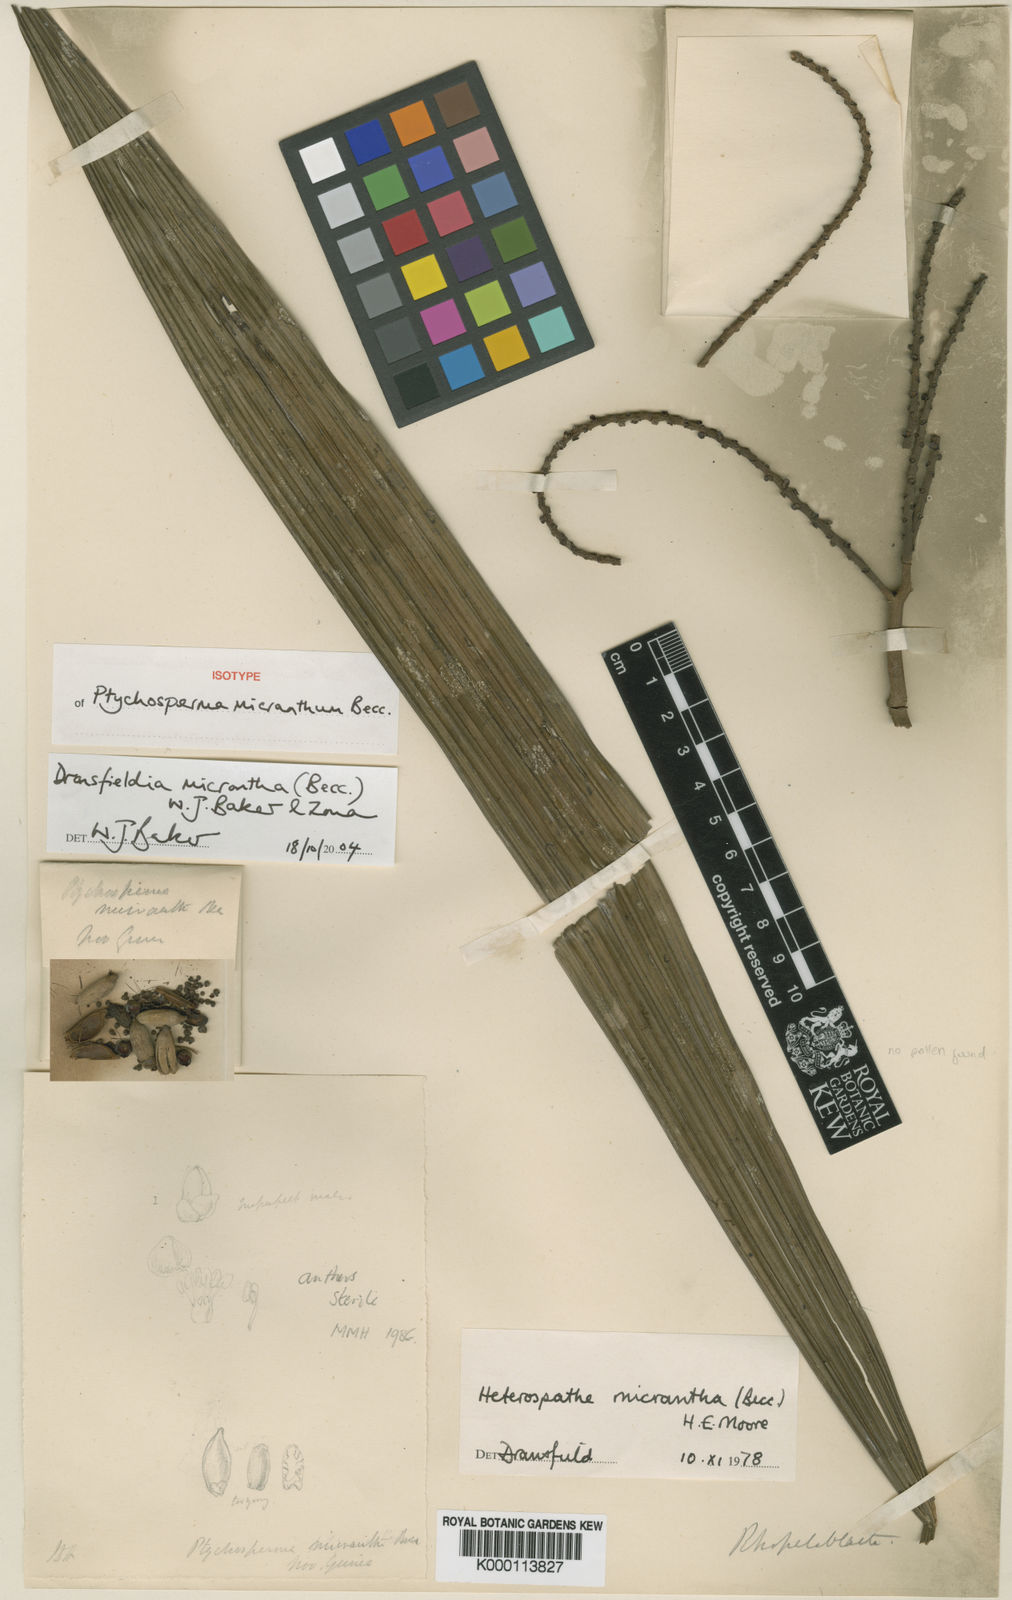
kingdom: Plantae
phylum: Tracheophyta
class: Liliopsida
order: Arecales
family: Arecaceae
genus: Dransfieldia
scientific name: Dransfieldia micrantha
